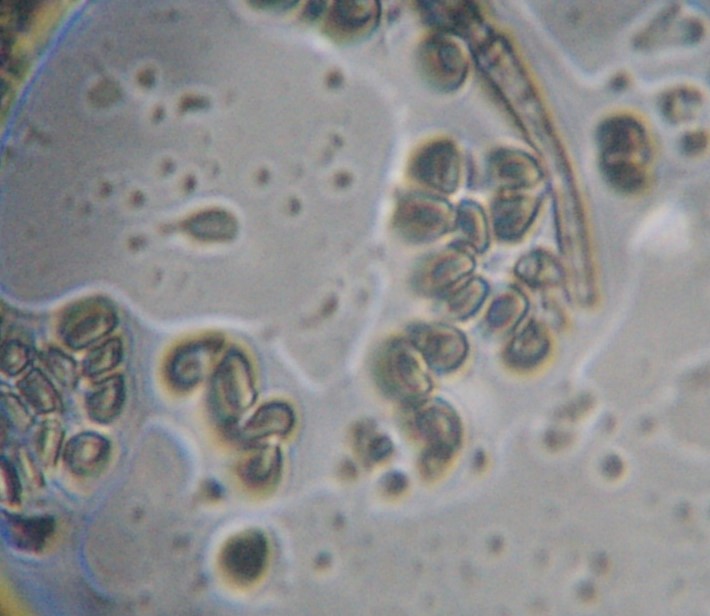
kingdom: Fungi
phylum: Ascomycota
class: Sordariomycetes
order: Xylariales
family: Hypoxylaceae
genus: Hypoxylon
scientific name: Hypoxylon
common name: kulbær
